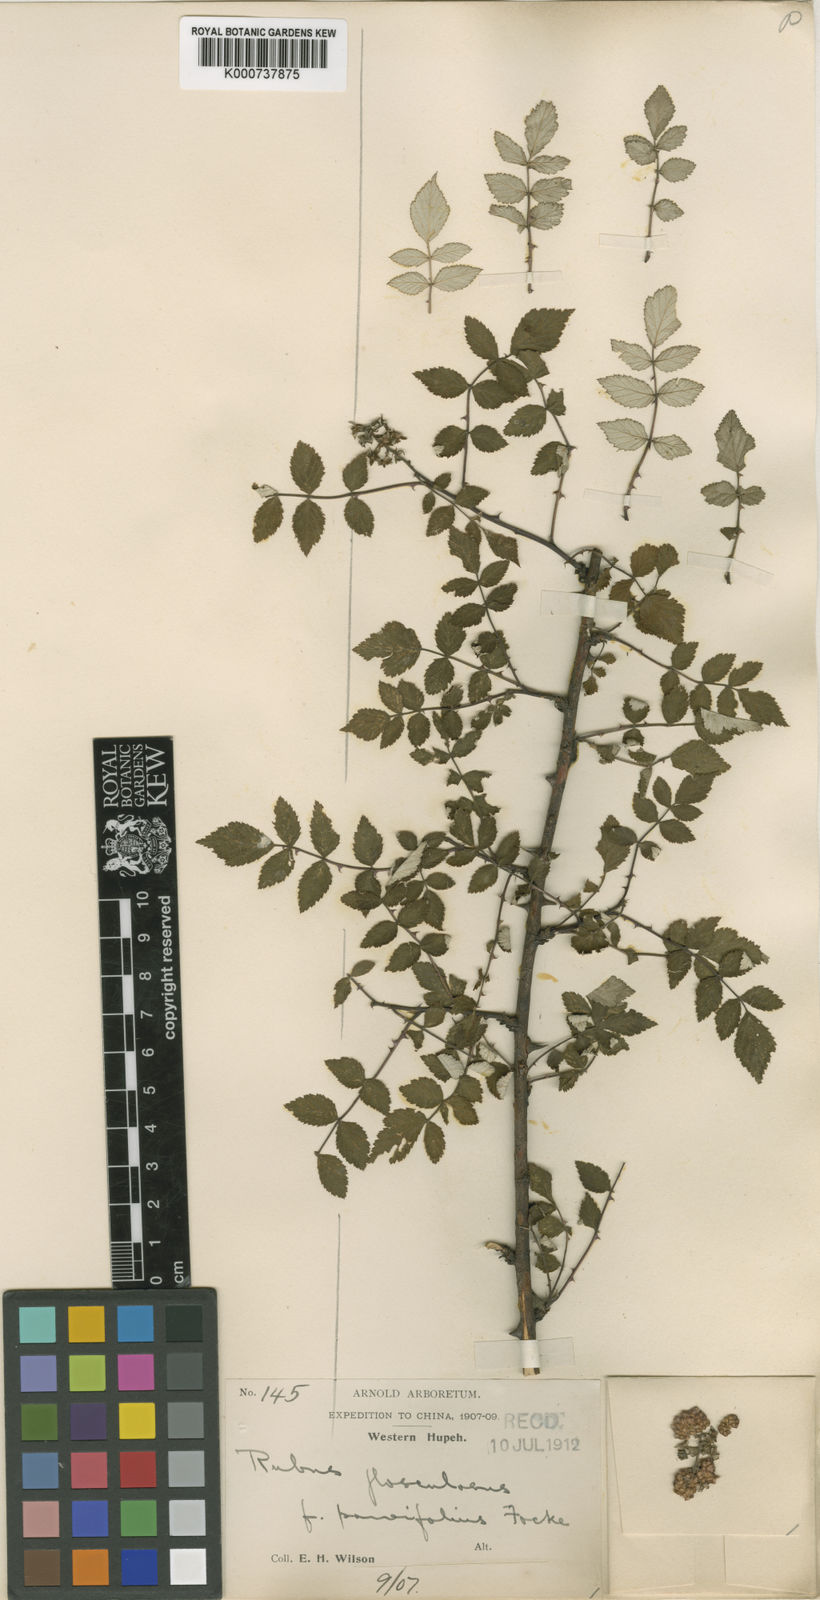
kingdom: Plantae
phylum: Tracheophyta
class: Magnoliopsida
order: Rosales
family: Rosaceae
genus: Rubus
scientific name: Rubus
